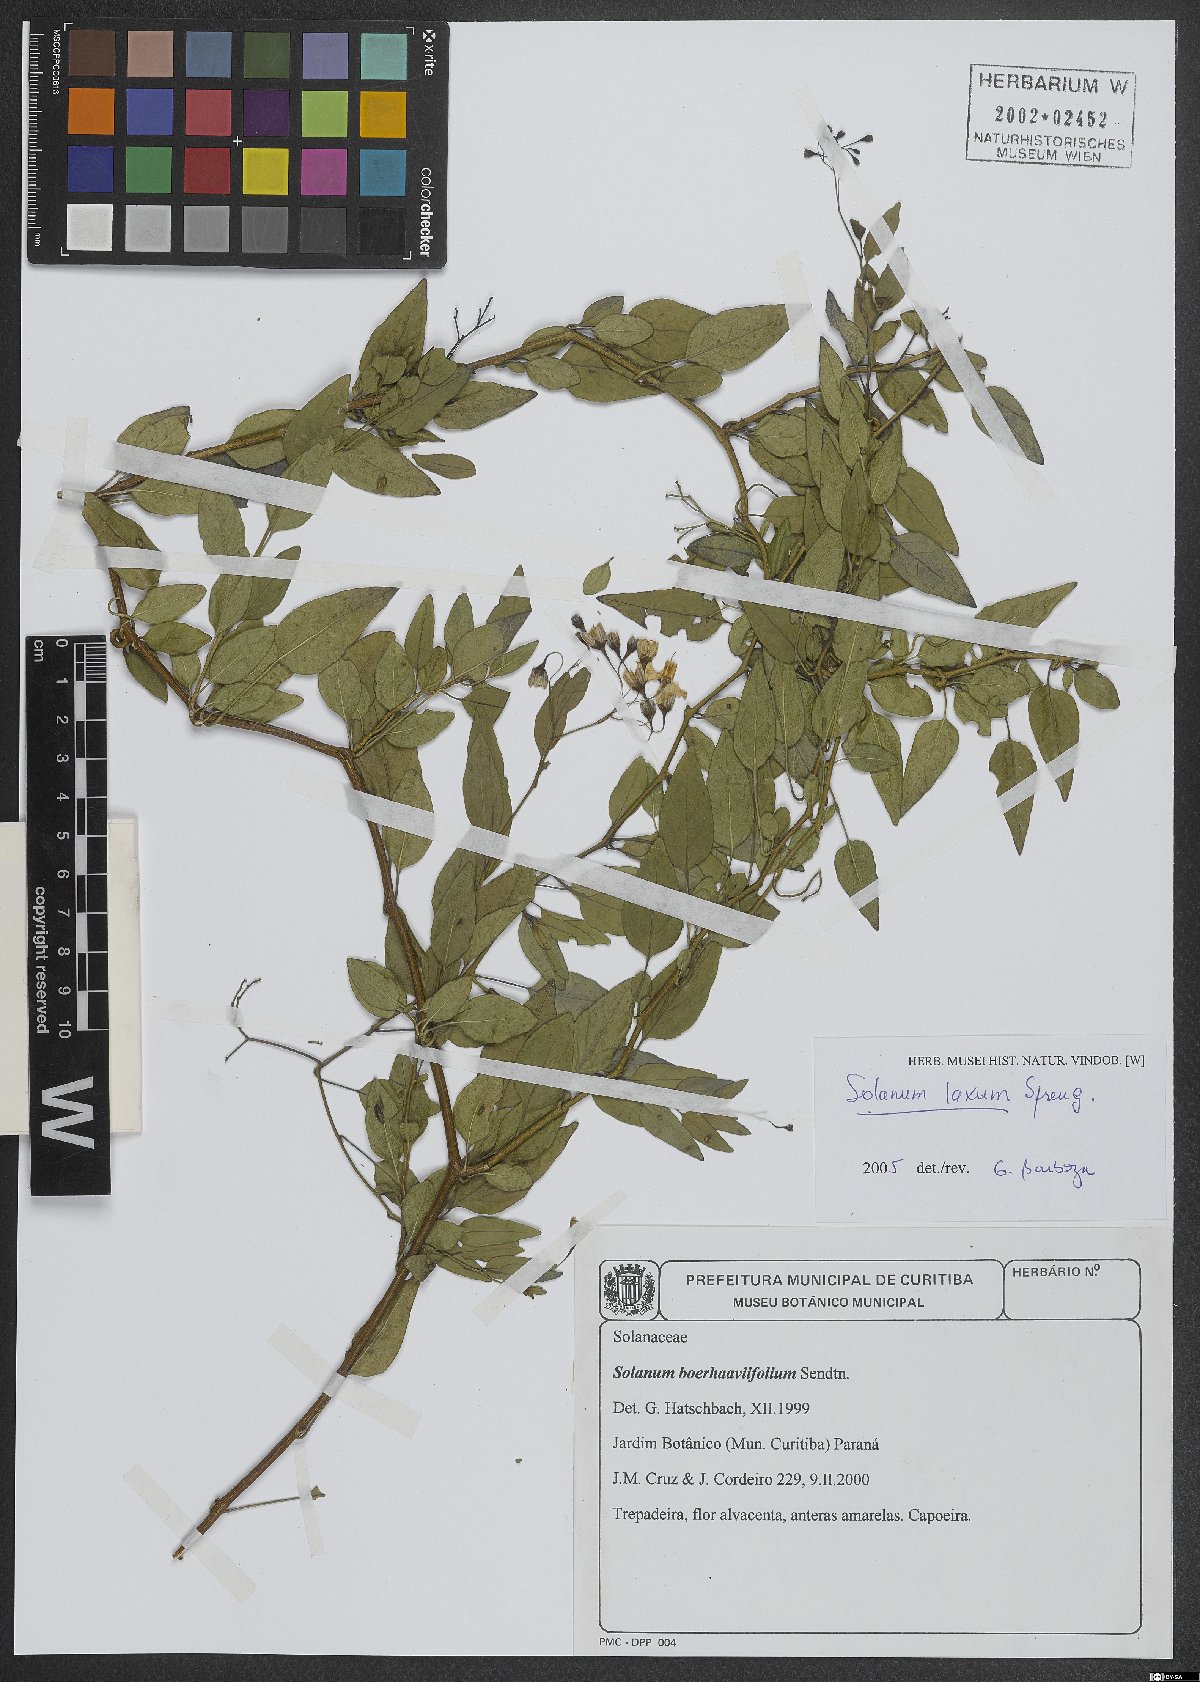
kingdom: Plantae
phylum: Tracheophyta
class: Magnoliopsida
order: Solanales
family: Solanaceae
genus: Solanum
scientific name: Solanum laxum
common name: Nightshade
